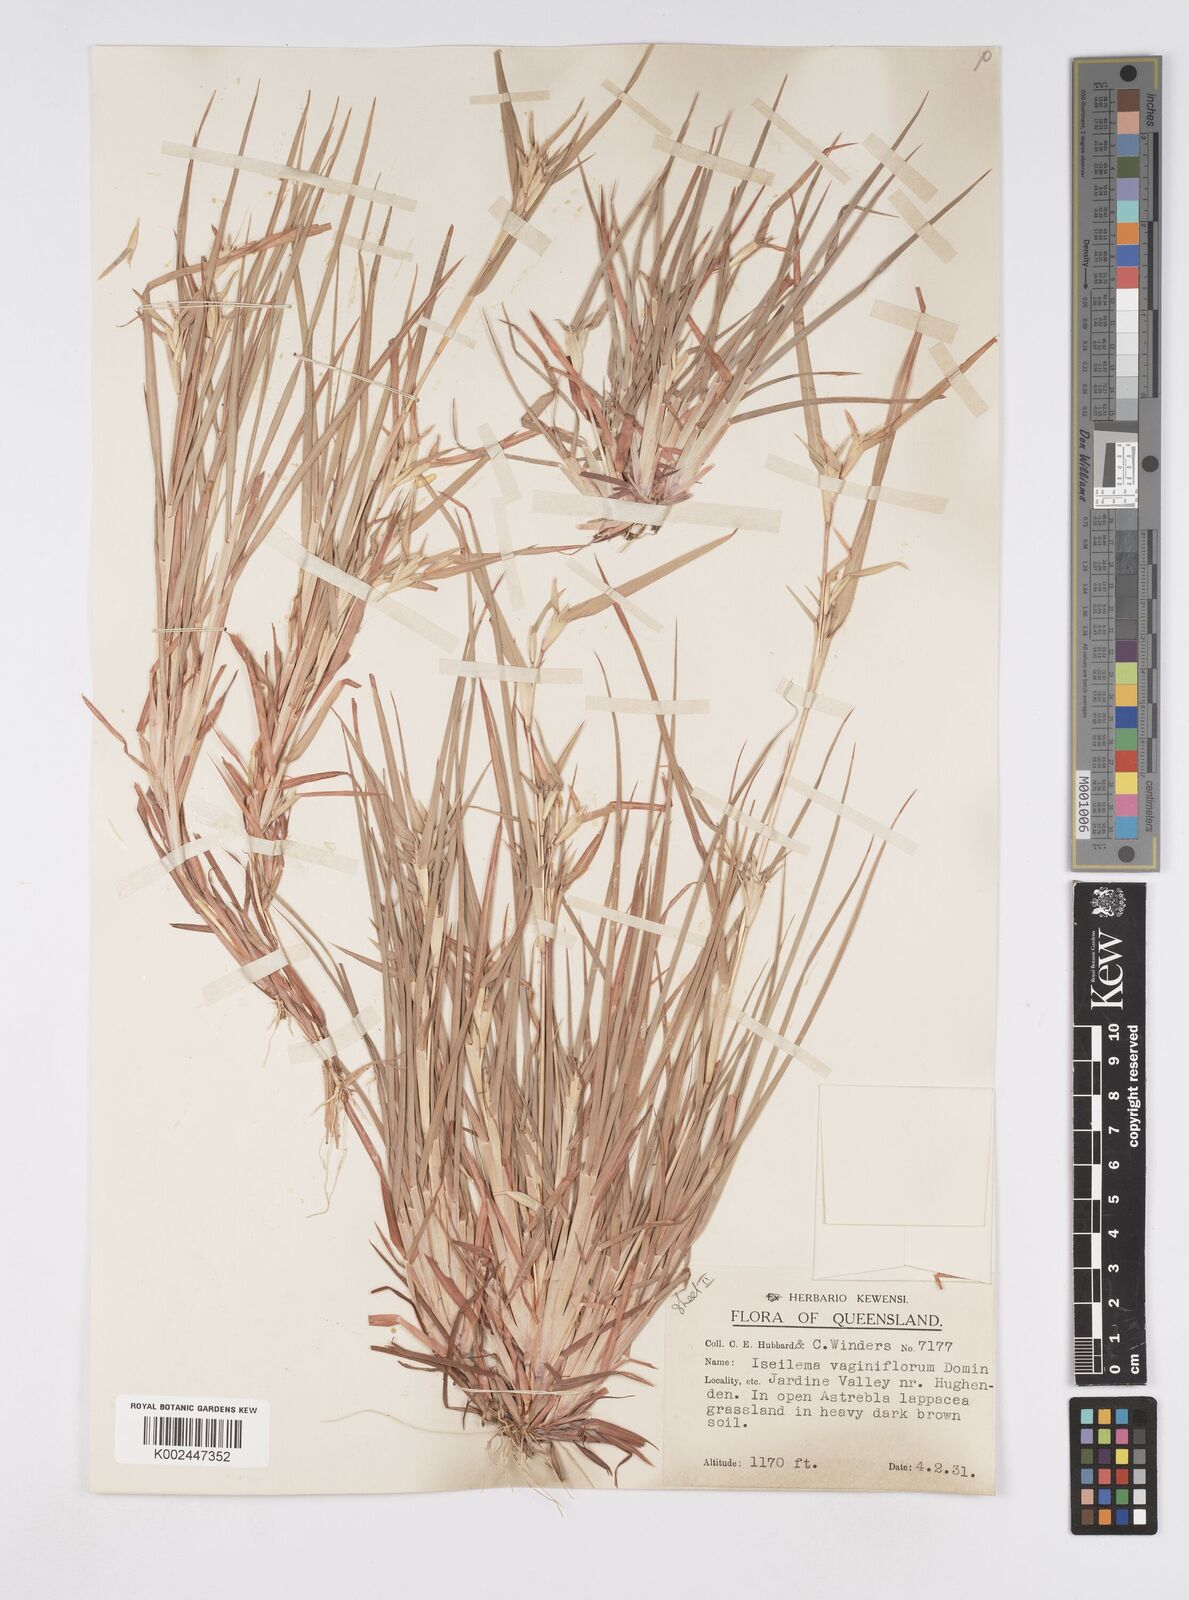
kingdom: Plantae
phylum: Tracheophyta
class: Liliopsida
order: Poales
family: Poaceae
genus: Iseilema
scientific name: Iseilema vaginiflorum
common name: Red flinders grass
